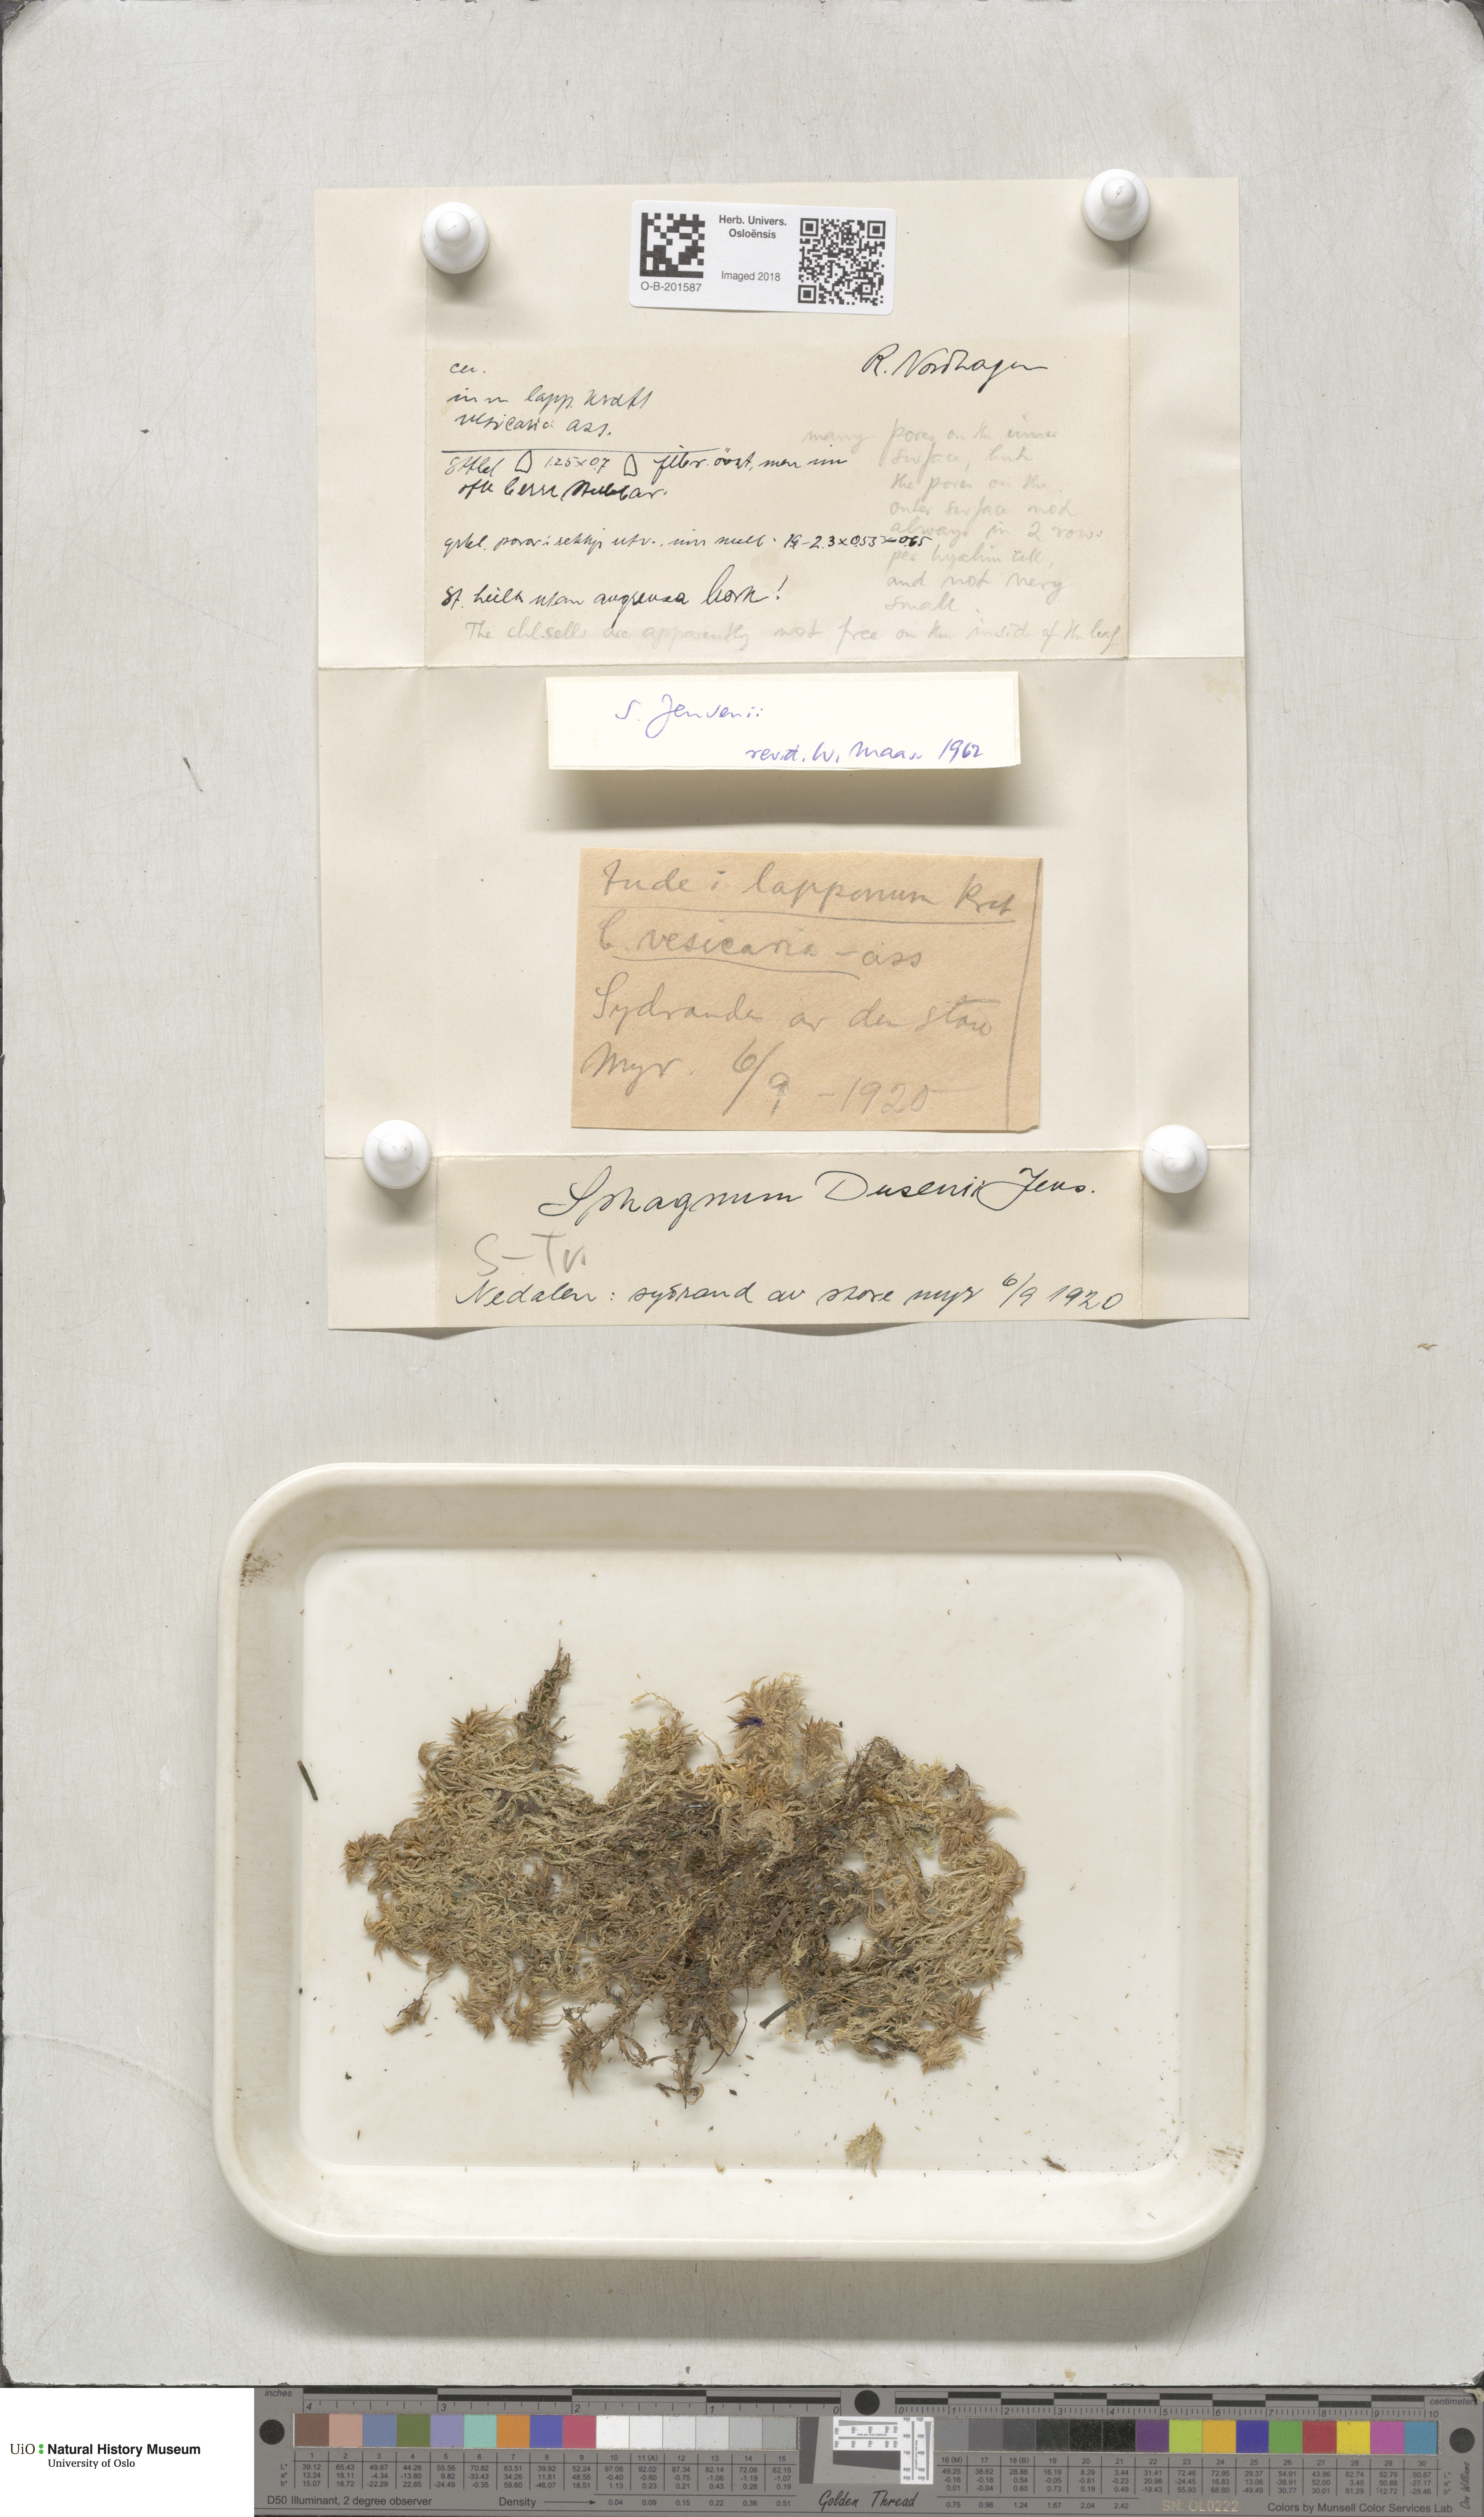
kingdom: Plantae
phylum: Bryophyta
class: Sphagnopsida
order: Sphagnales
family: Sphagnaceae
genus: Sphagnum
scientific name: Sphagnum jensenii
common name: Jensen's peat moss
